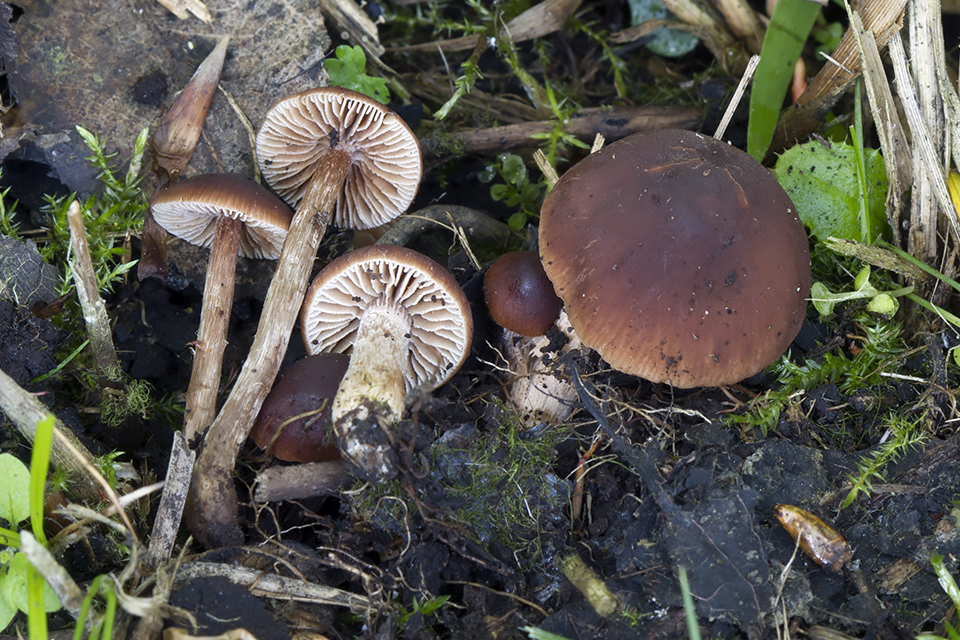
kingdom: Fungi
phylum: Basidiomycota
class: Agaricomycetes
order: Agaricales
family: Hymenogastraceae
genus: Naucoria
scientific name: Naucoria salicis
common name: pile-knaphat
